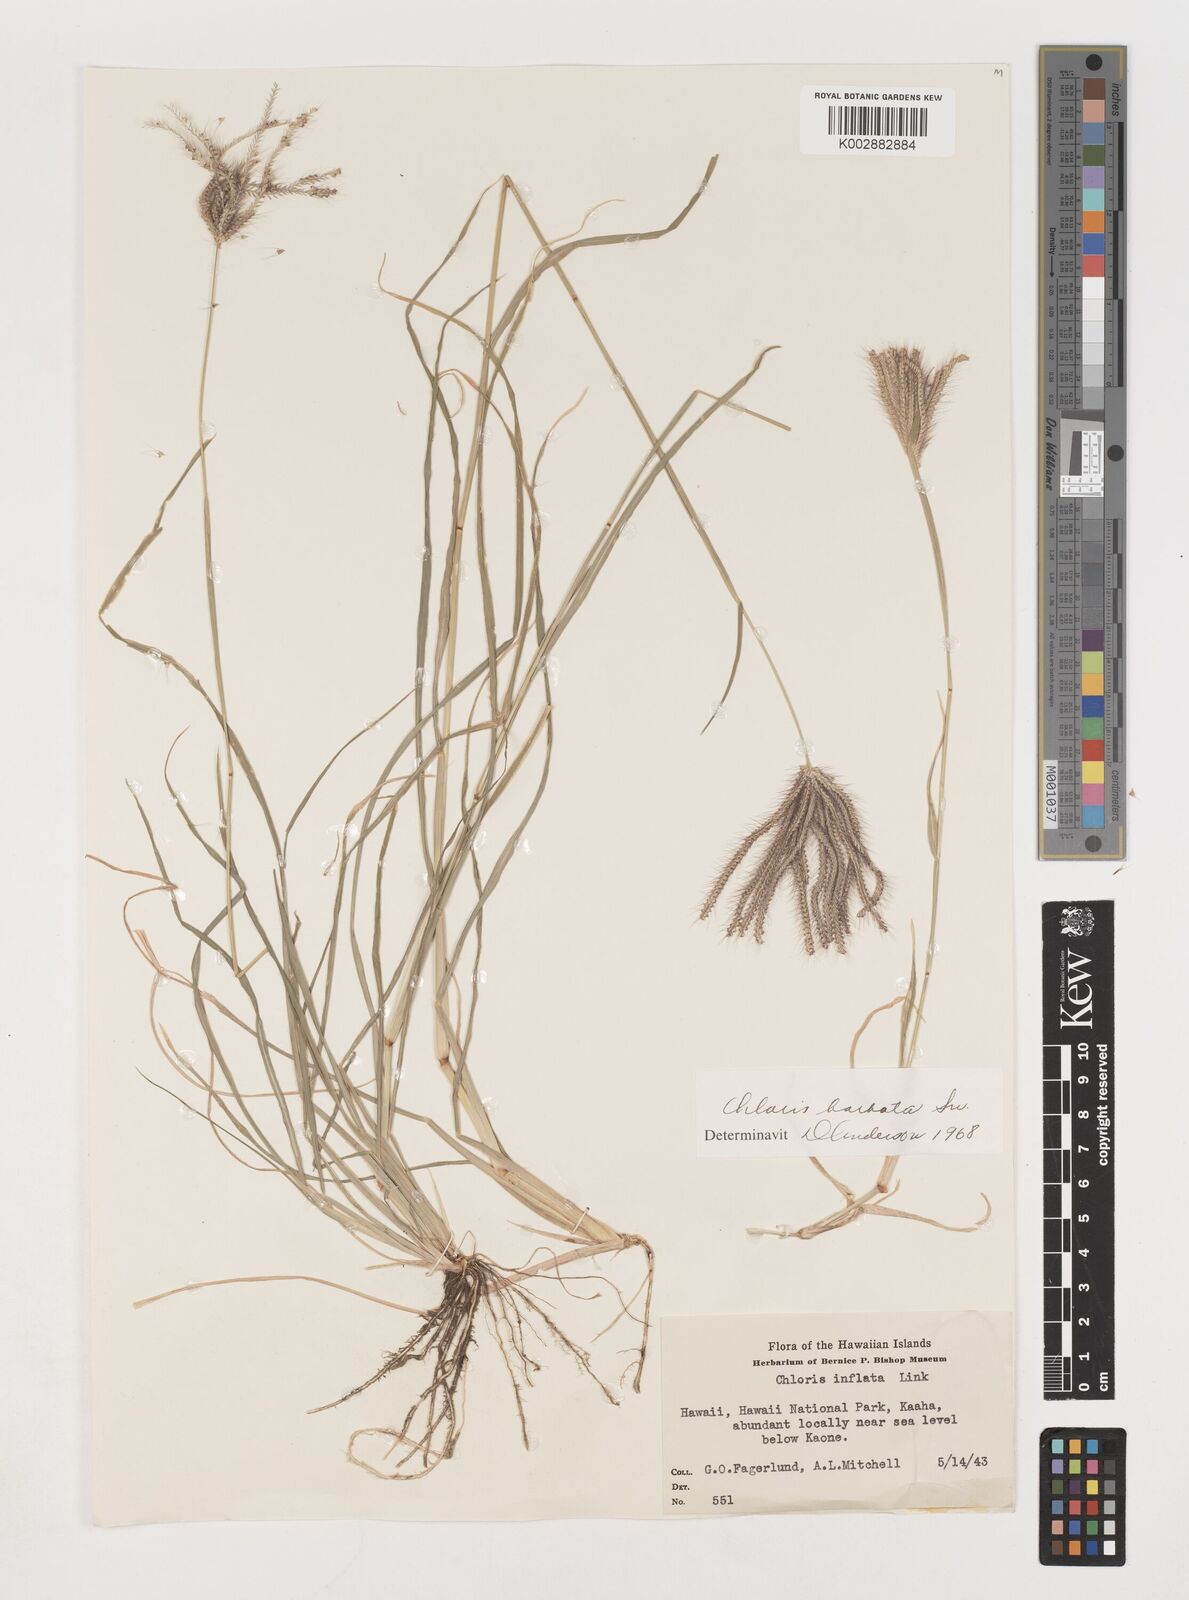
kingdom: Plantae
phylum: Tracheophyta
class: Liliopsida
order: Poales
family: Poaceae
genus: Chloris
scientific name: Chloris barbata
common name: Swollen fingergrass
